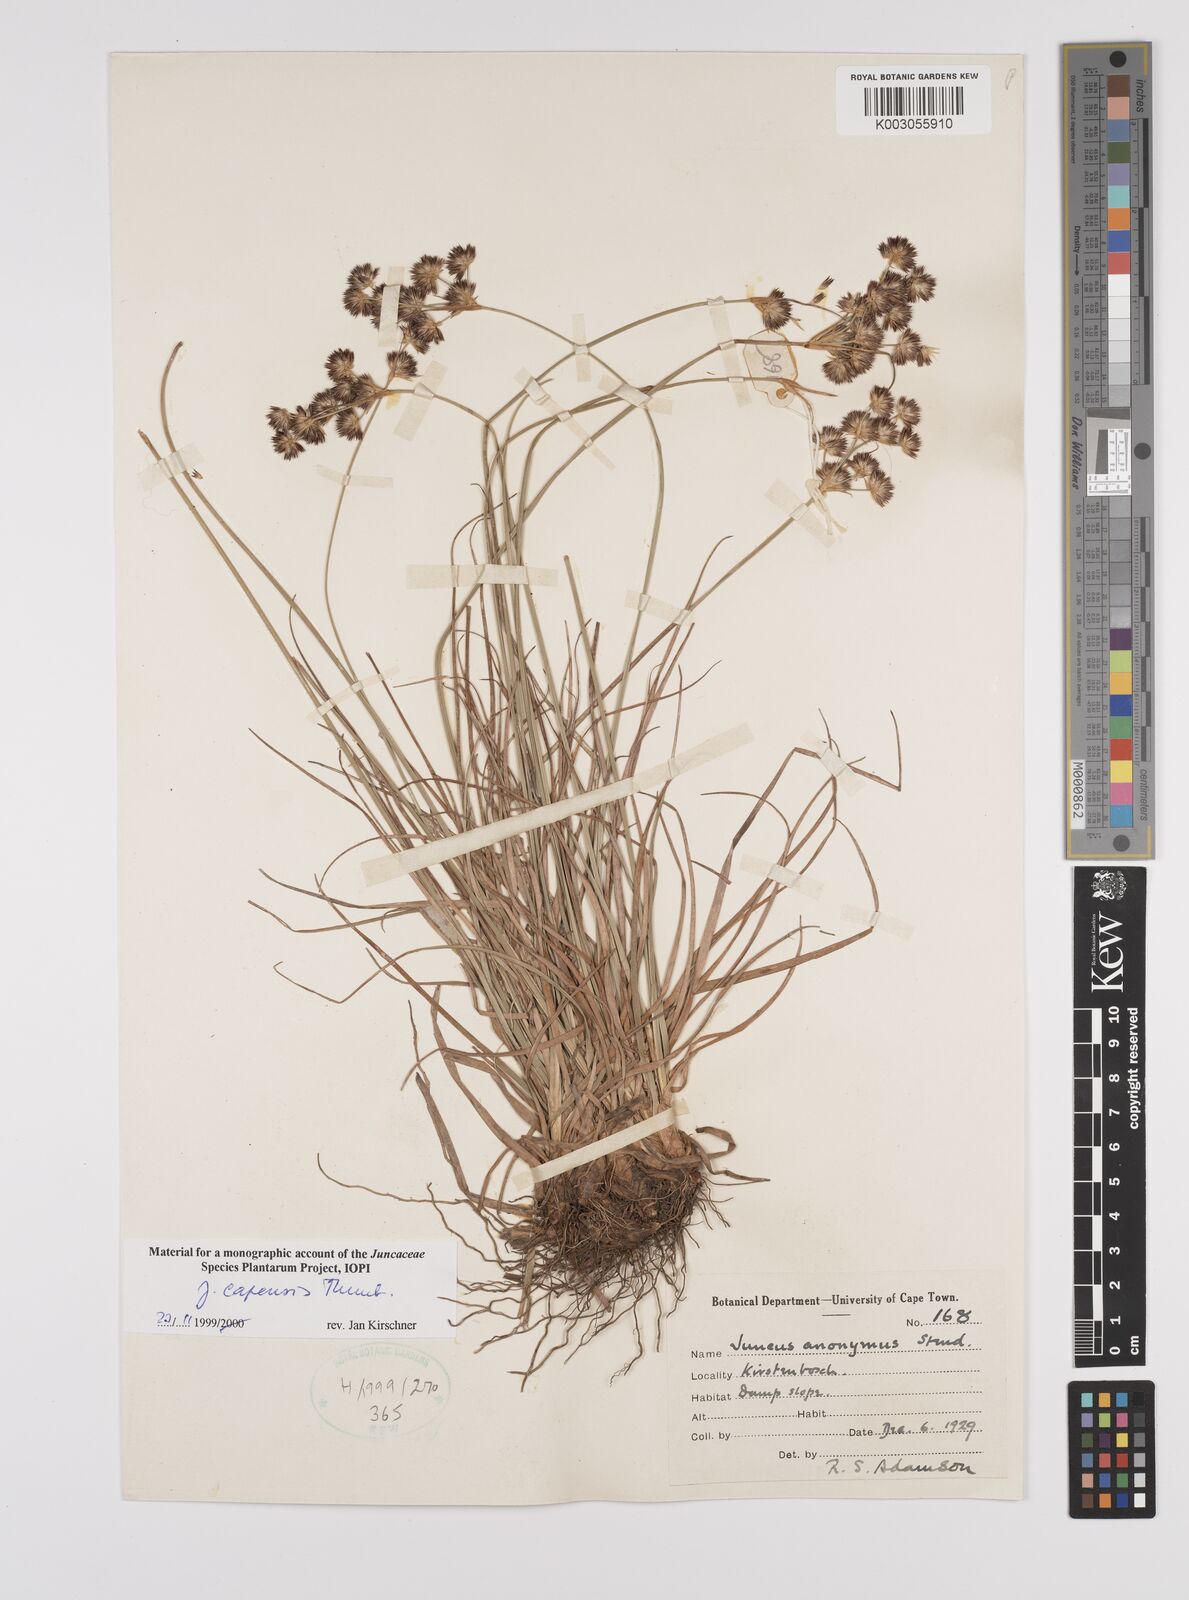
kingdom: Plantae
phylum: Tracheophyta
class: Liliopsida
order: Poales
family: Juncaceae
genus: Juncus
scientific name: Juncus capensis
